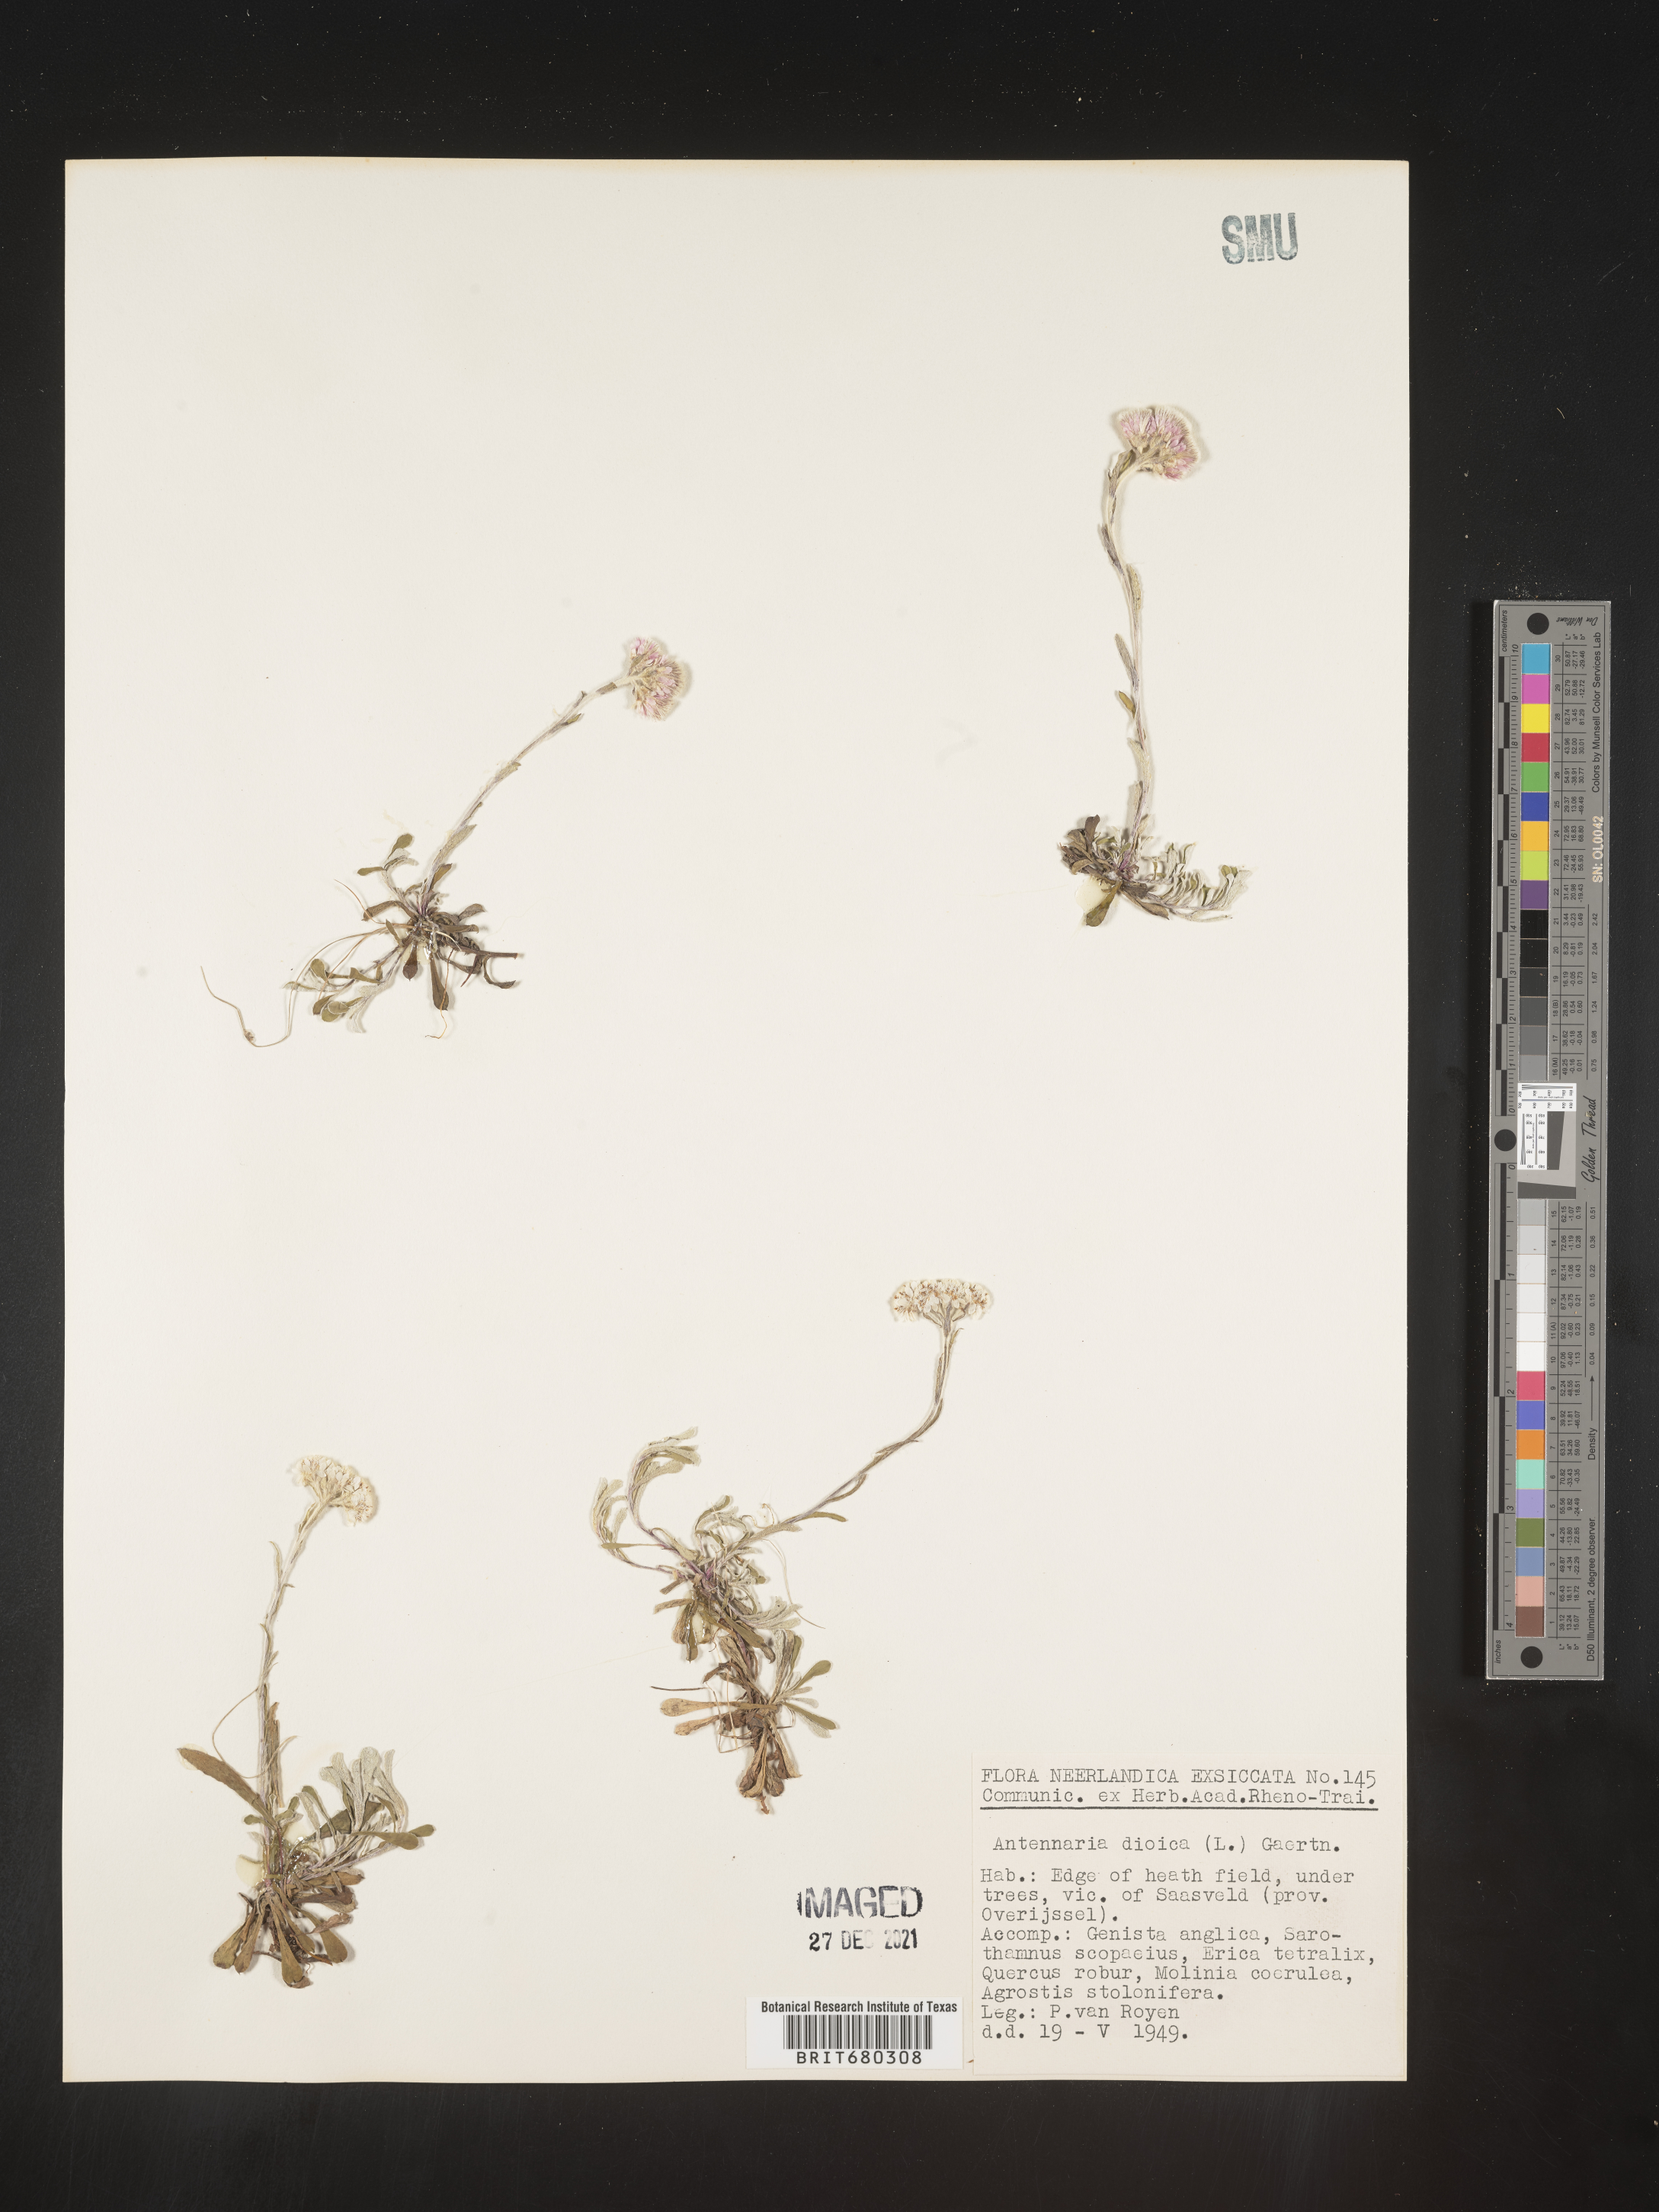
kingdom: Plantae
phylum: Tracheophyta
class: Magnoliopsida
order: Asterales
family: Asteraceae
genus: Antennaria
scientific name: Antennaria dioica
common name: Mountain everlasting
